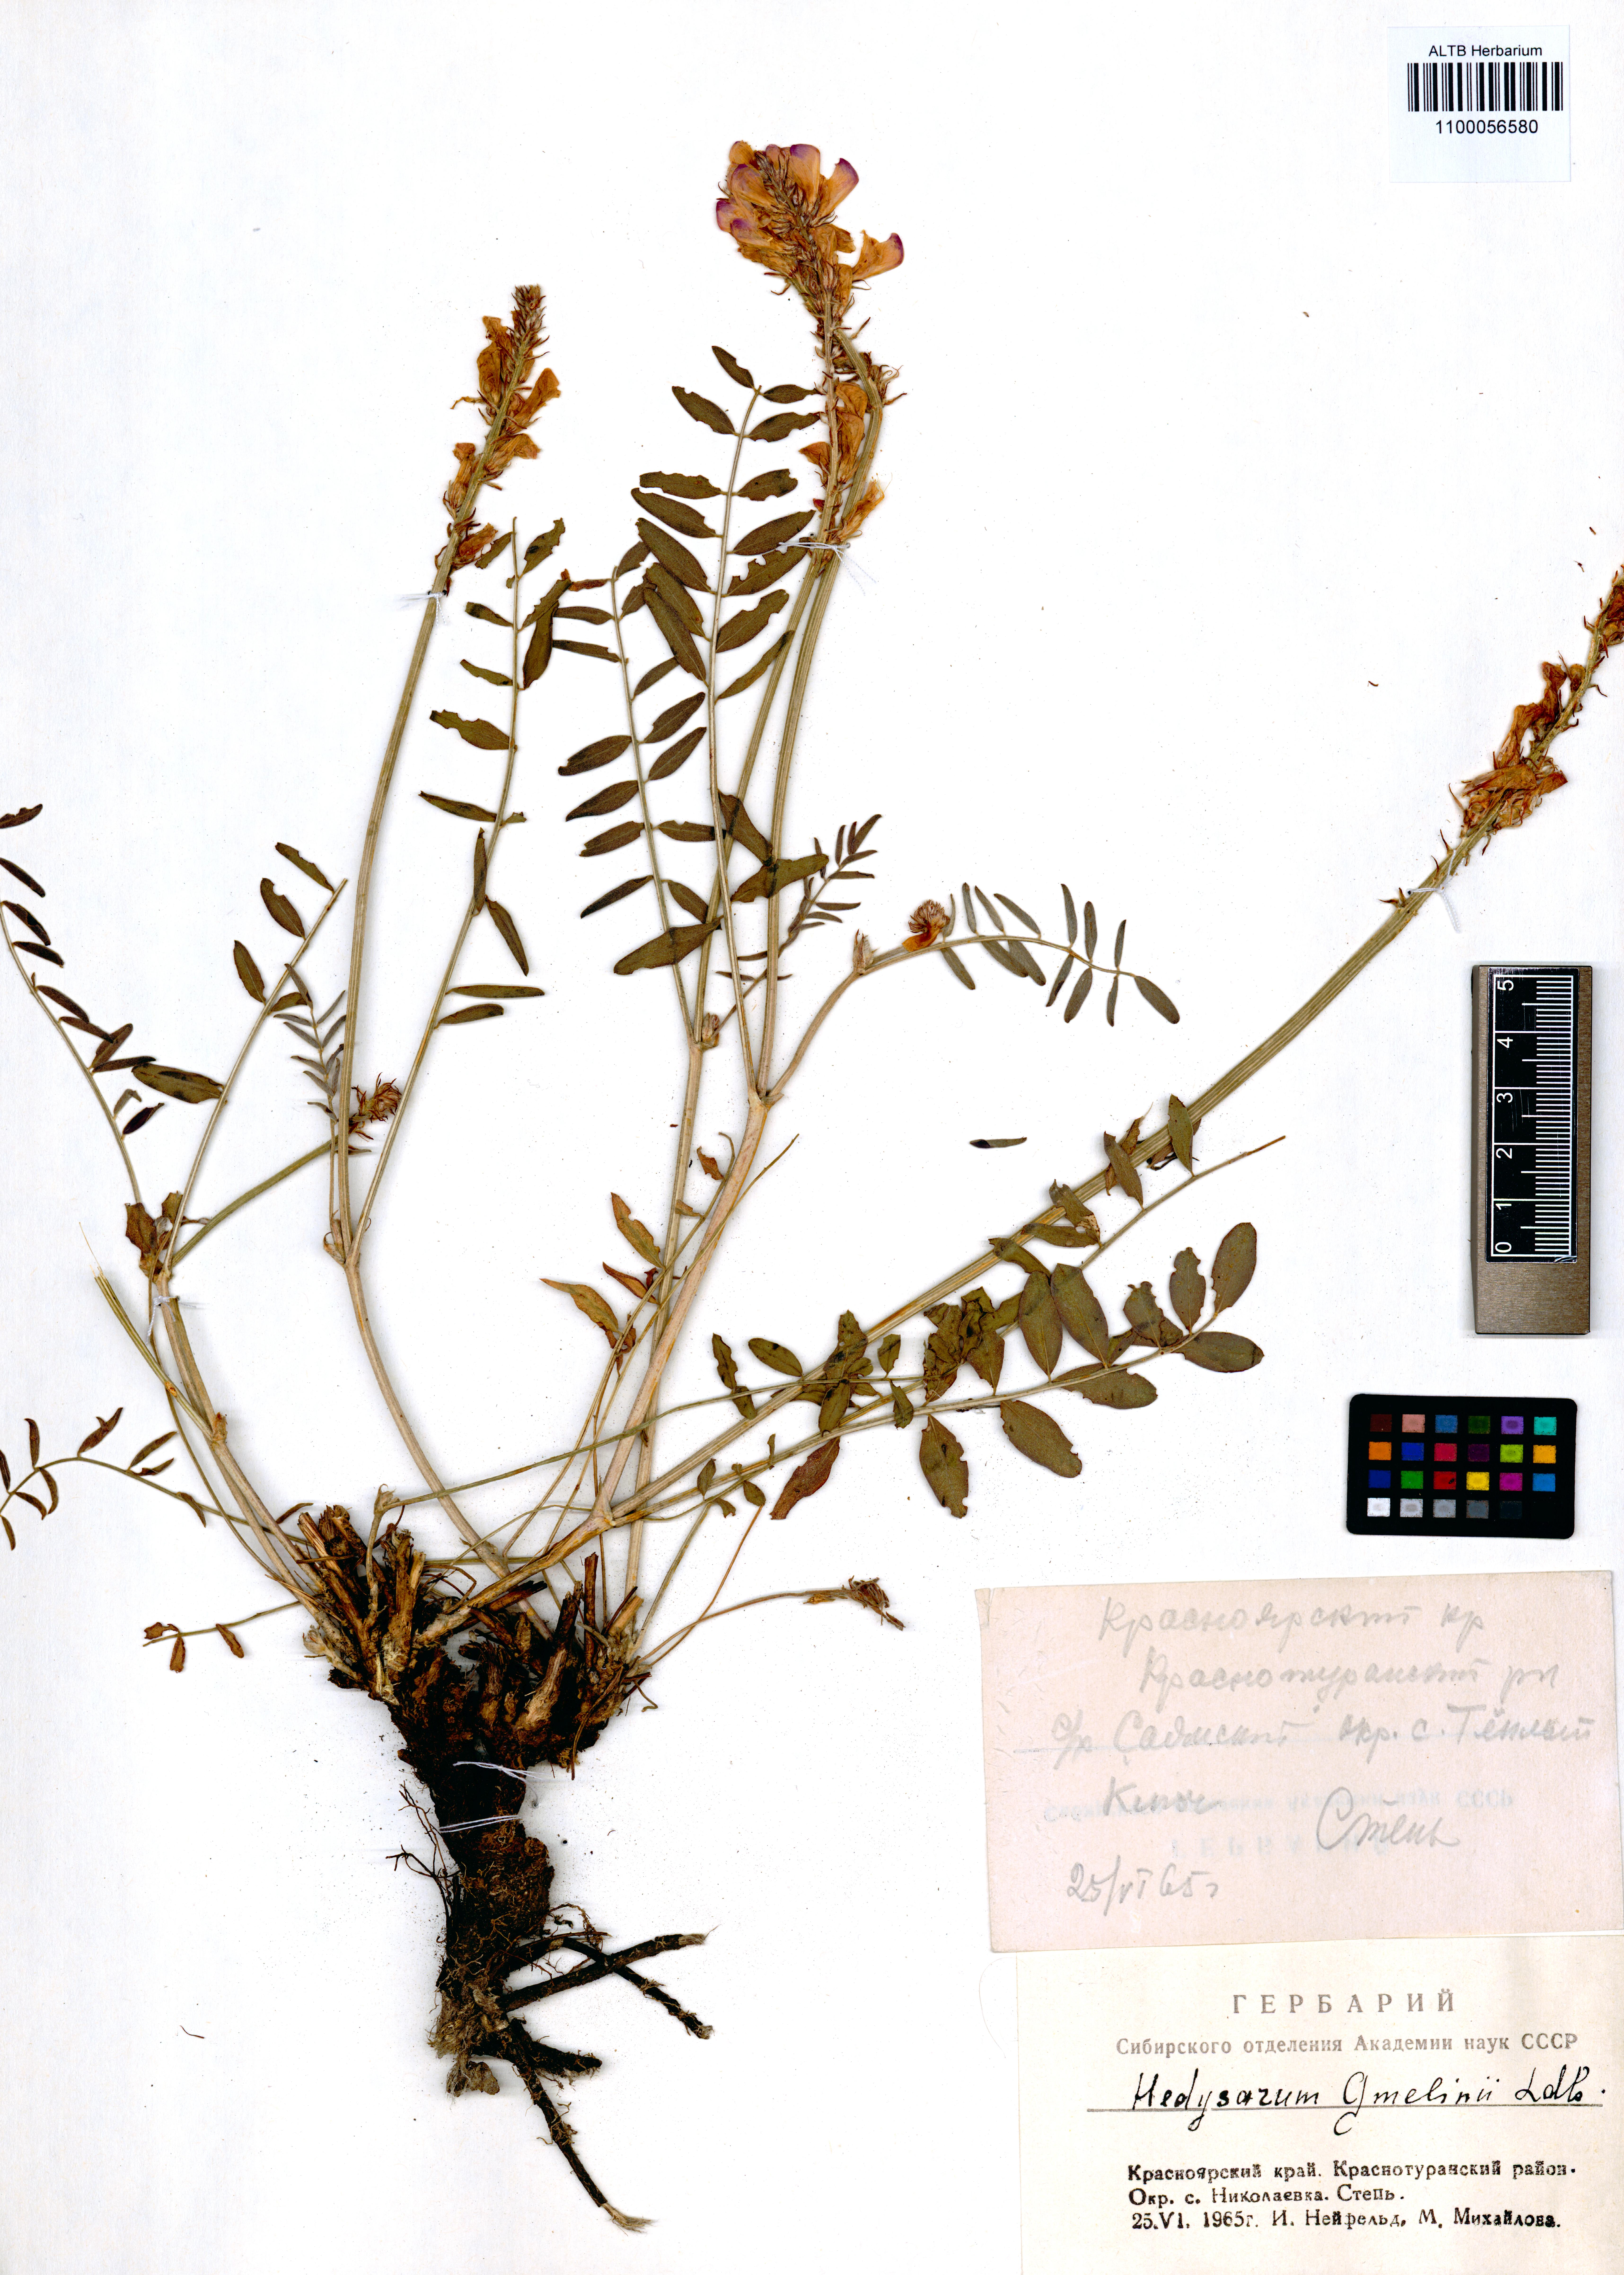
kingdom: Plantae
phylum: Tracheophyta
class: Magnoliopsida
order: Fabales
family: Fabaceae
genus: Hedysarum
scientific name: Hedysarum gmelinii
